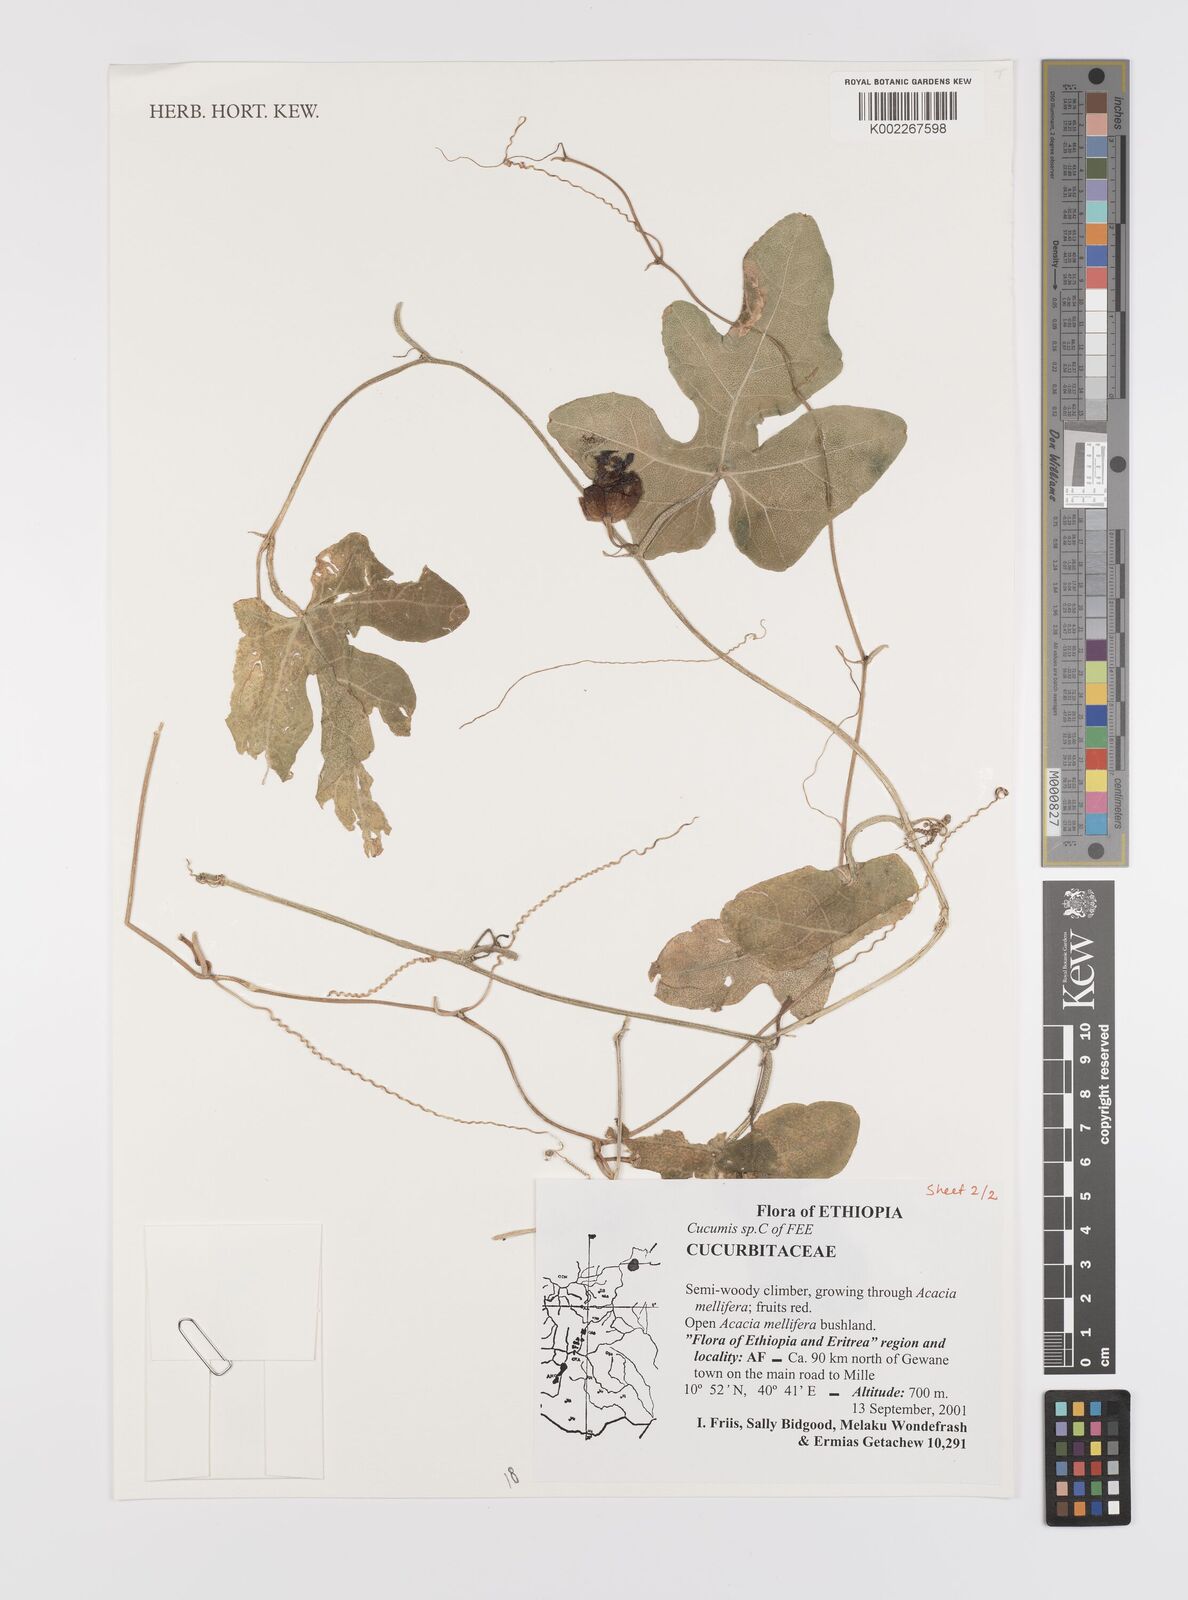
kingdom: Plantae
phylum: Tracheophyta
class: Magnoliopsida
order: Cucurbitales
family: Cucurbitaceae
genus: Cucumis
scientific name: Cucumis
